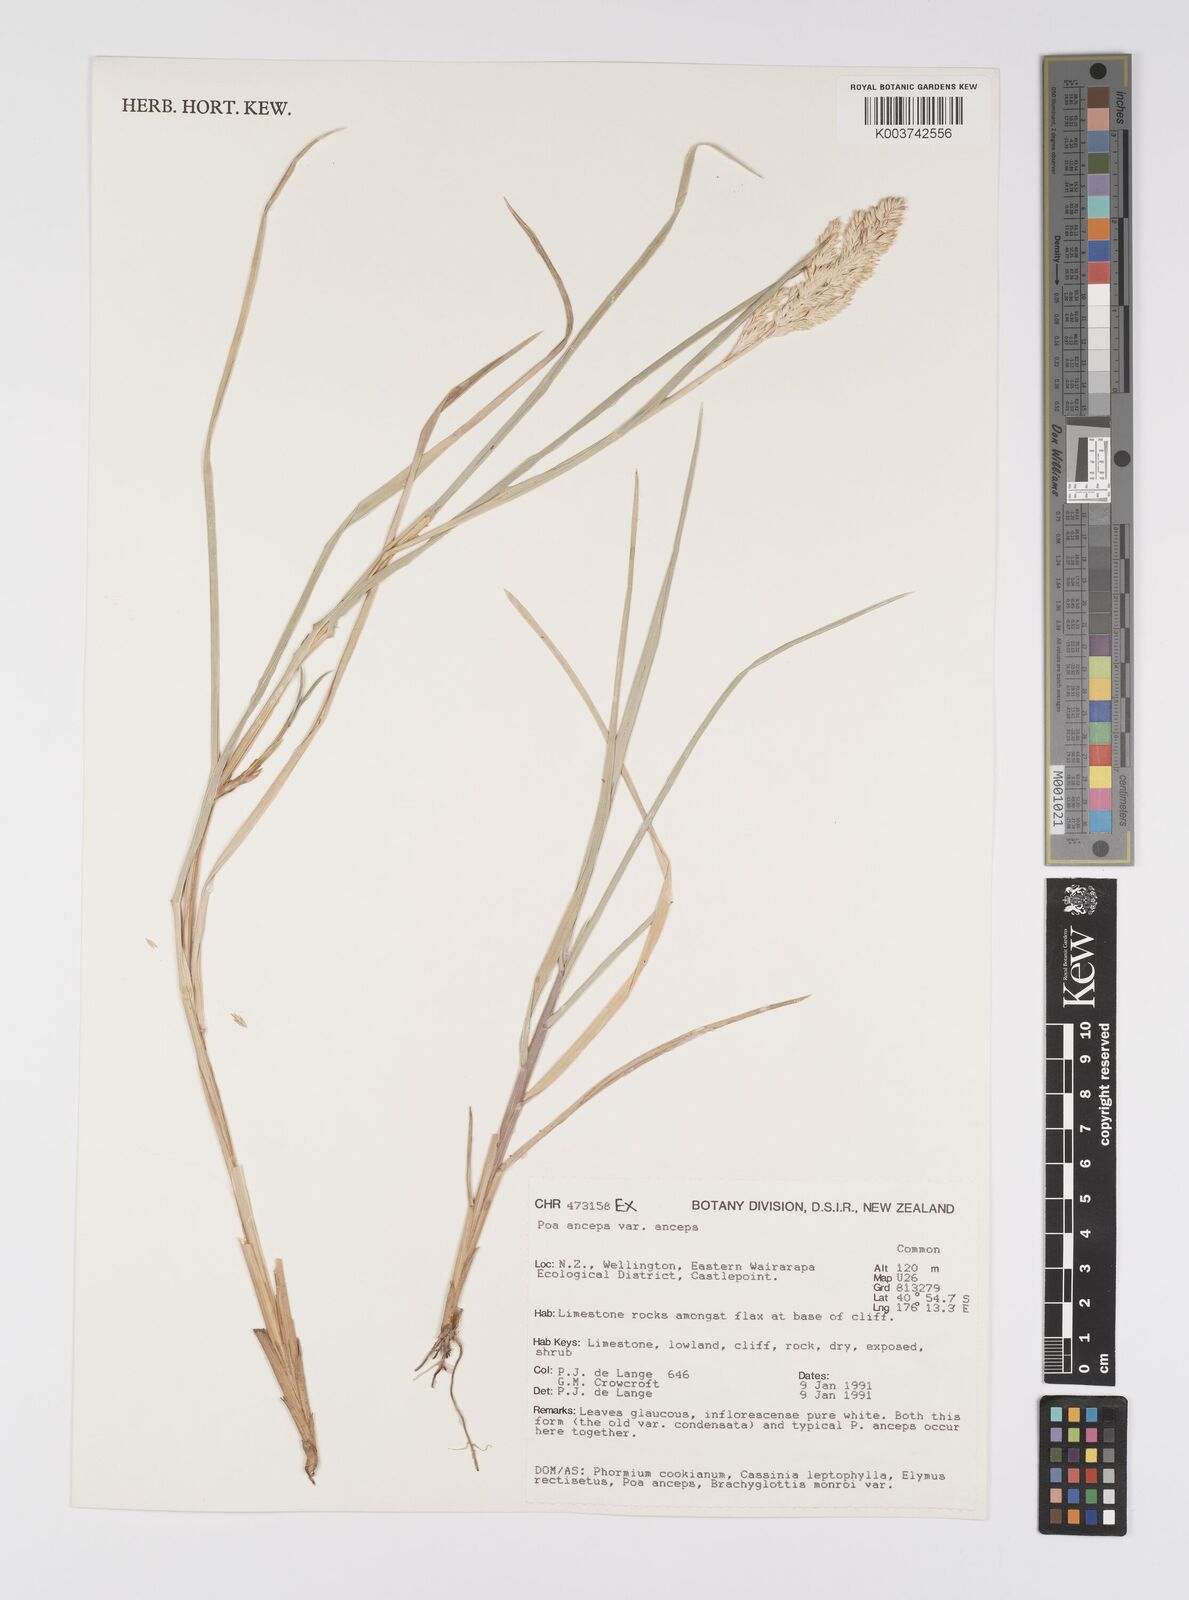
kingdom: Plantae
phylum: Tracheophyta
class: Liliopsida
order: Poales
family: Poaceae
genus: Poa
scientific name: Poa anceps
